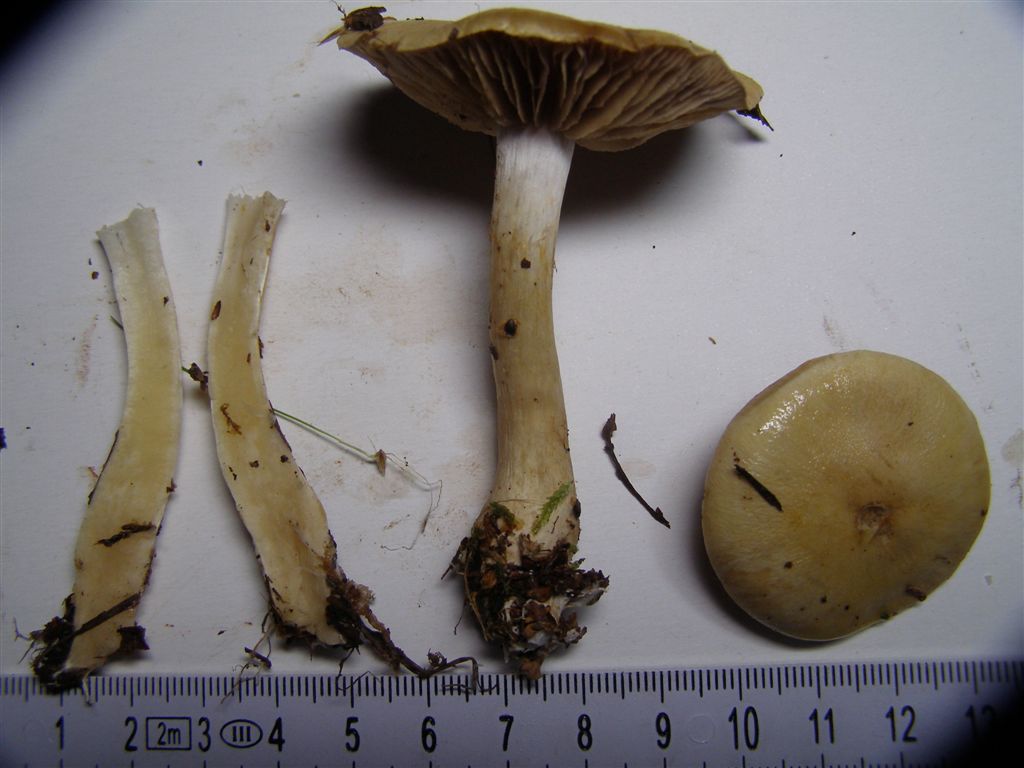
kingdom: Fungi
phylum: Basidiomycota
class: Agaricomycetes
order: Agaricales
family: Cortinariaceae
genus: Cortinarius
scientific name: Cortinarius delibutus
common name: gul slørhat
